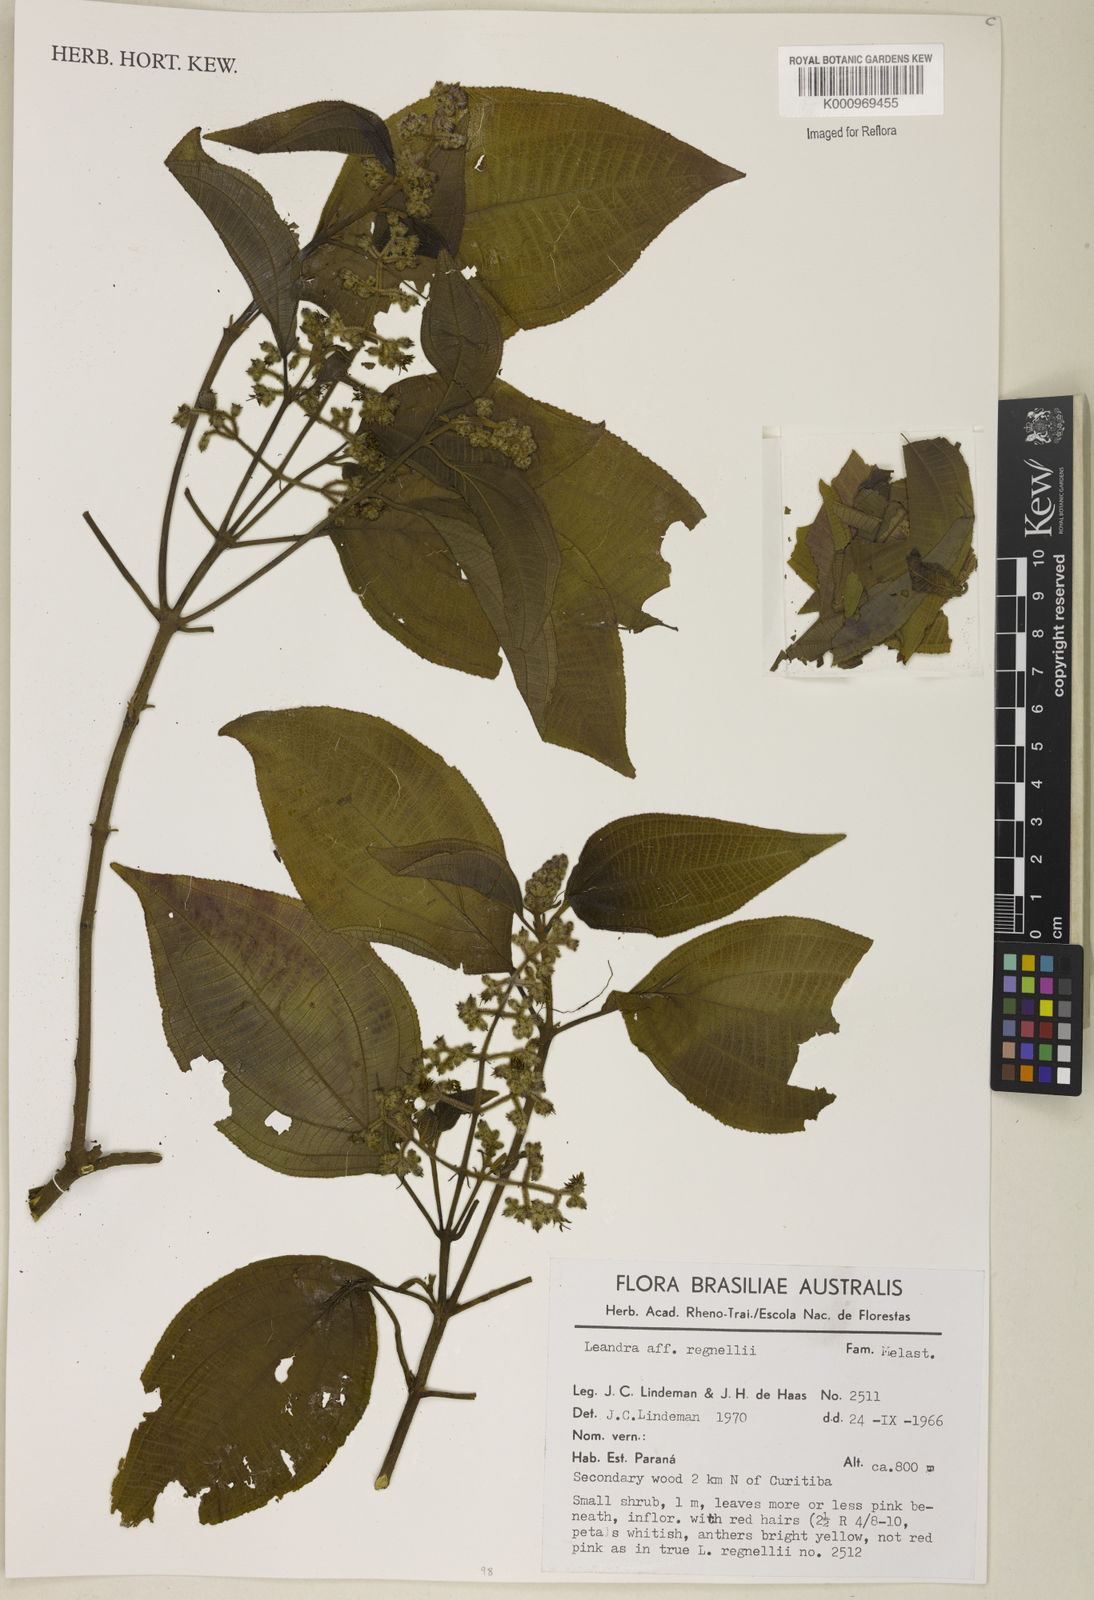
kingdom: Plantae
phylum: Tracheophyta
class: Magnoliopsida
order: Myrtales
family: Melastomataceae
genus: Miconia
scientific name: Miconia alterninervia
